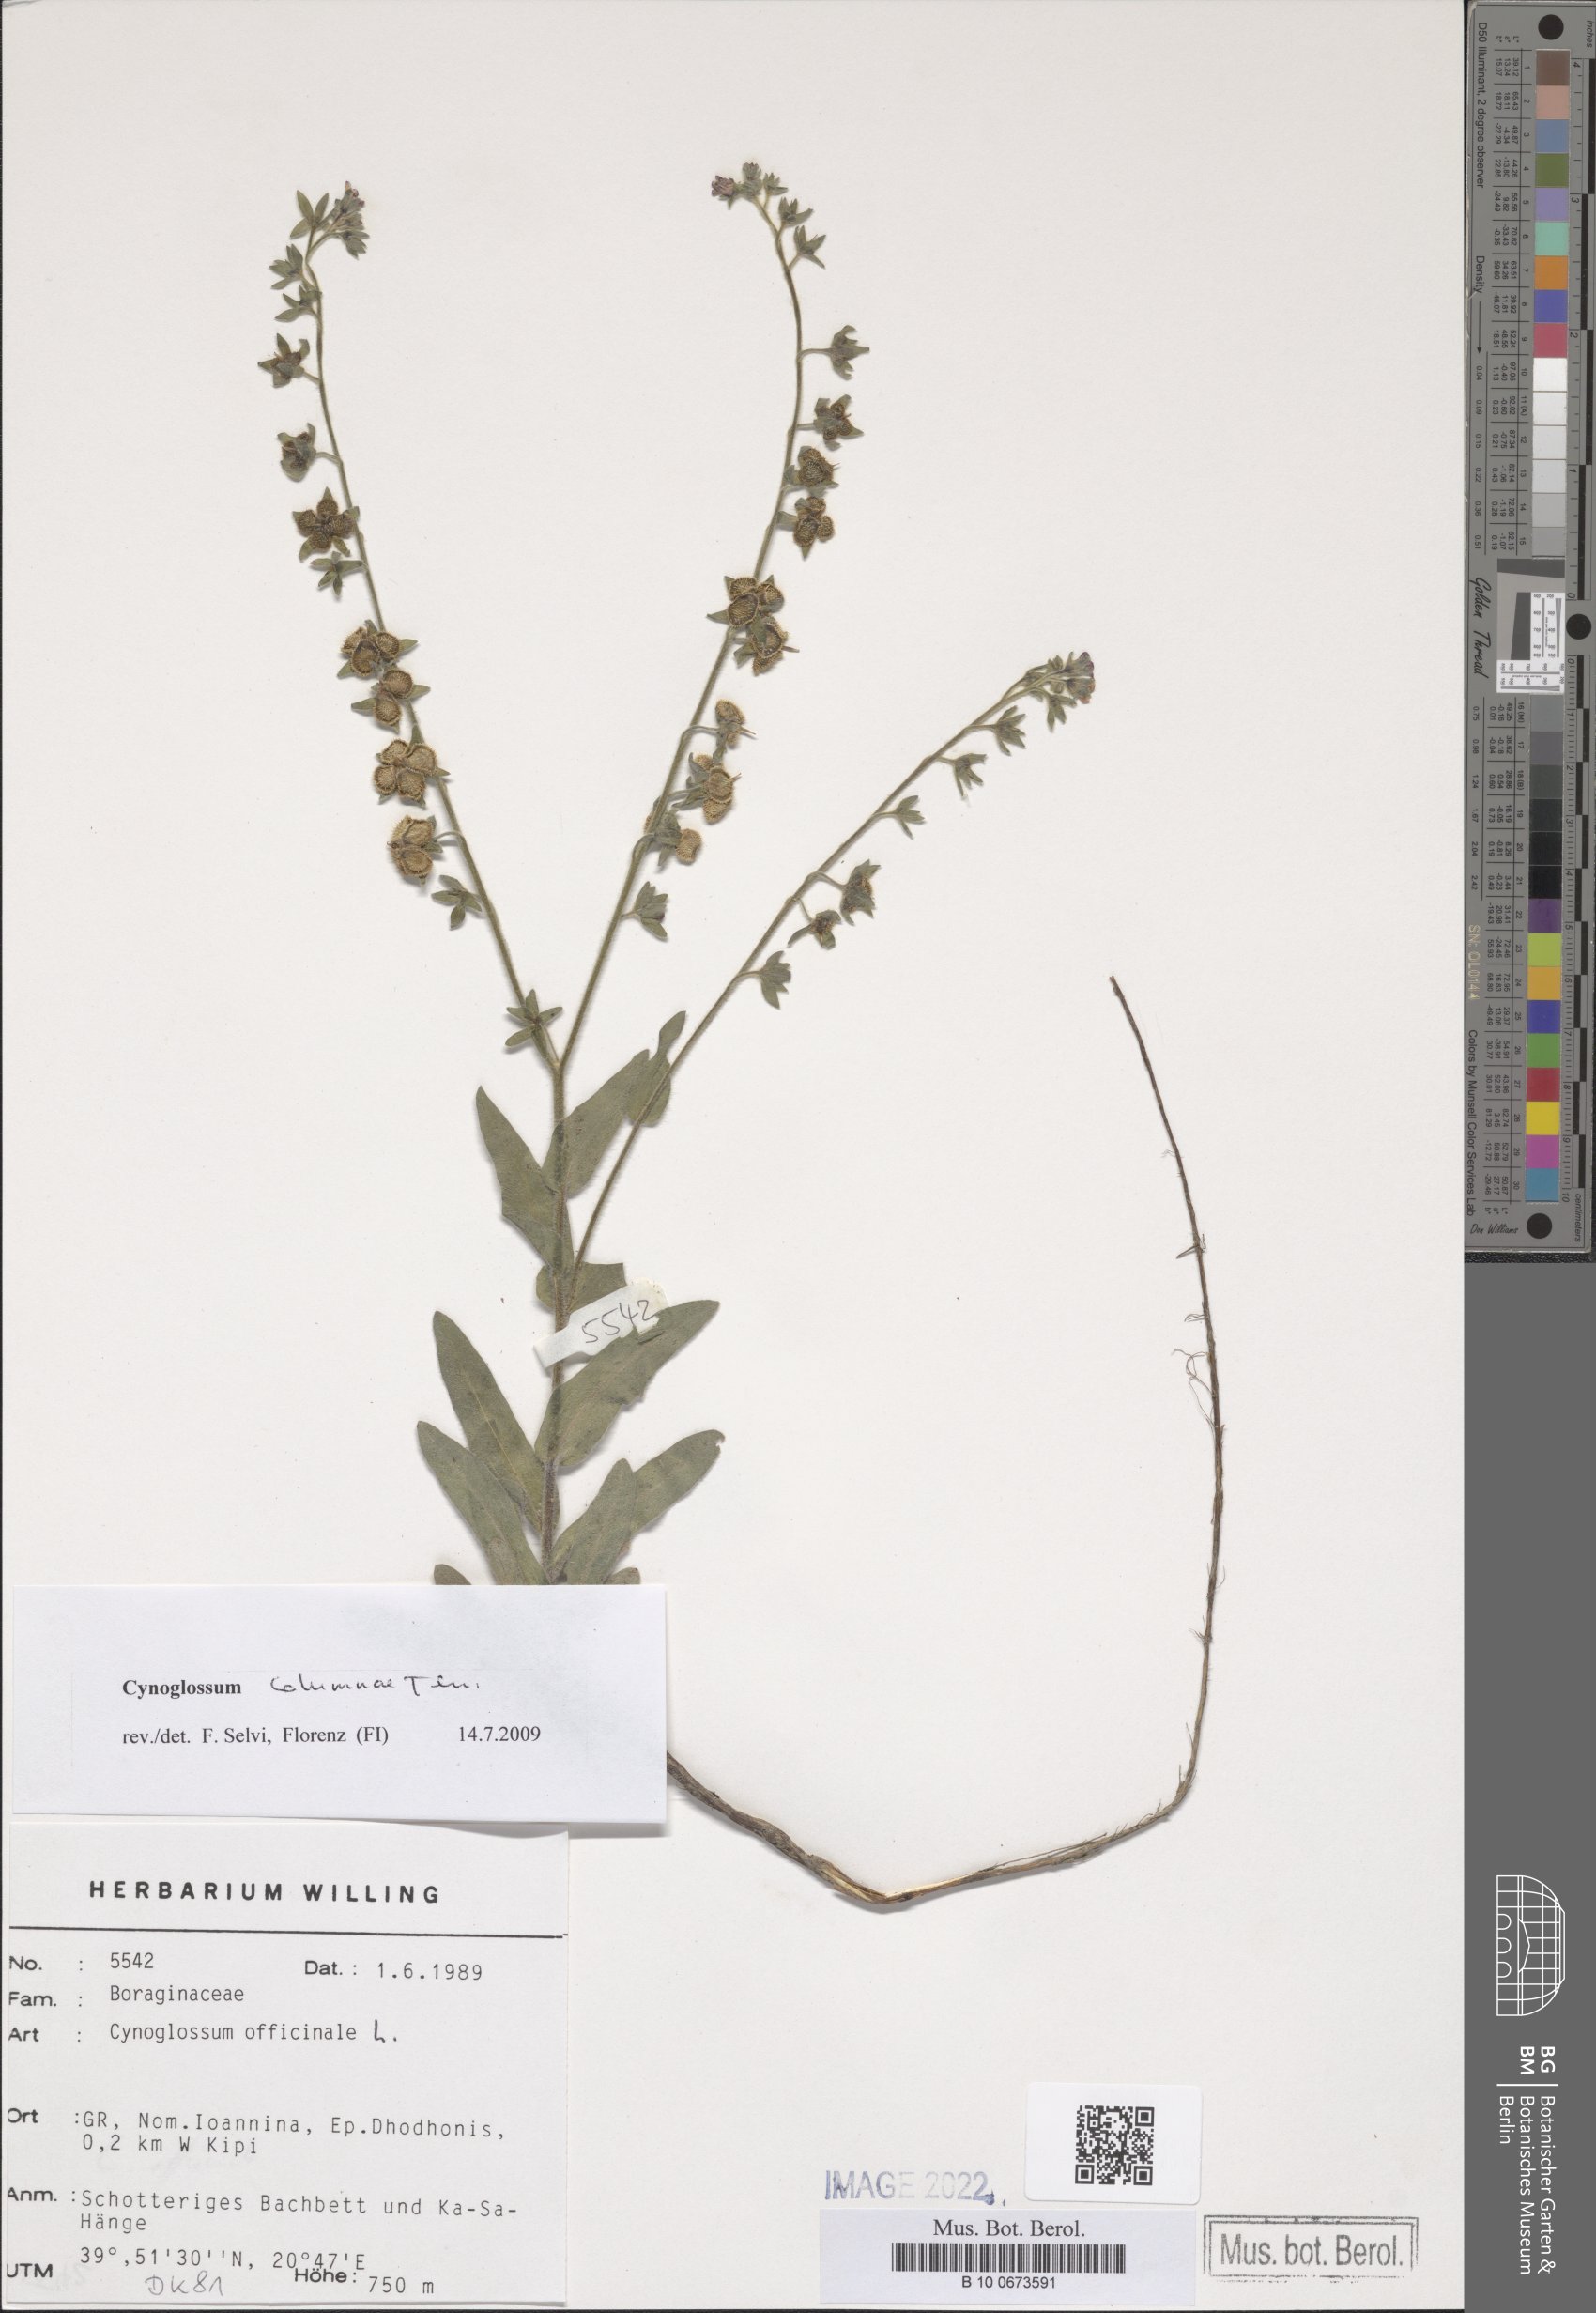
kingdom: Plantae
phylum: Tracheophyta
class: Magnoliopsida
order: Boraginales
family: Boraginaceae
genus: Rindera
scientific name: Rindera columnae
